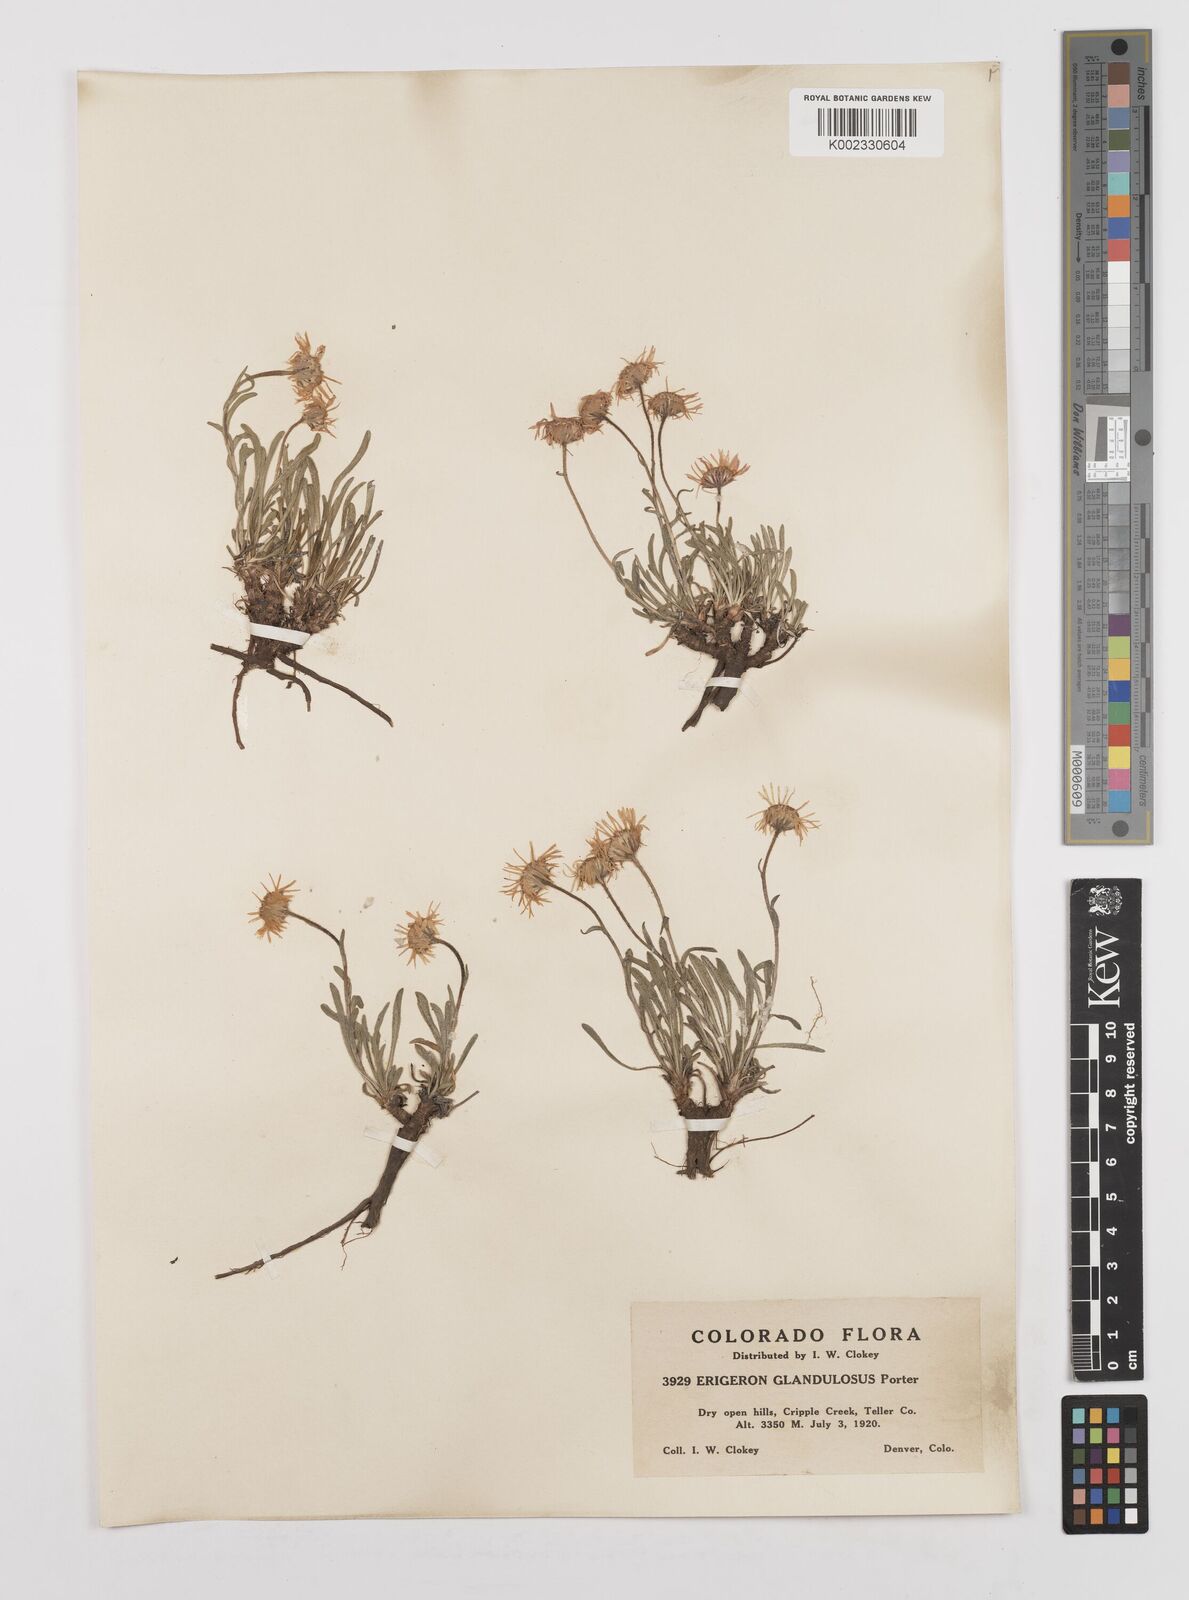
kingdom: Plantae
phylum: Tracheophyta
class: Magnoliopsida
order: Asterales
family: Asteraceae
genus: Erigeron
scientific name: Erigeron vetensis
